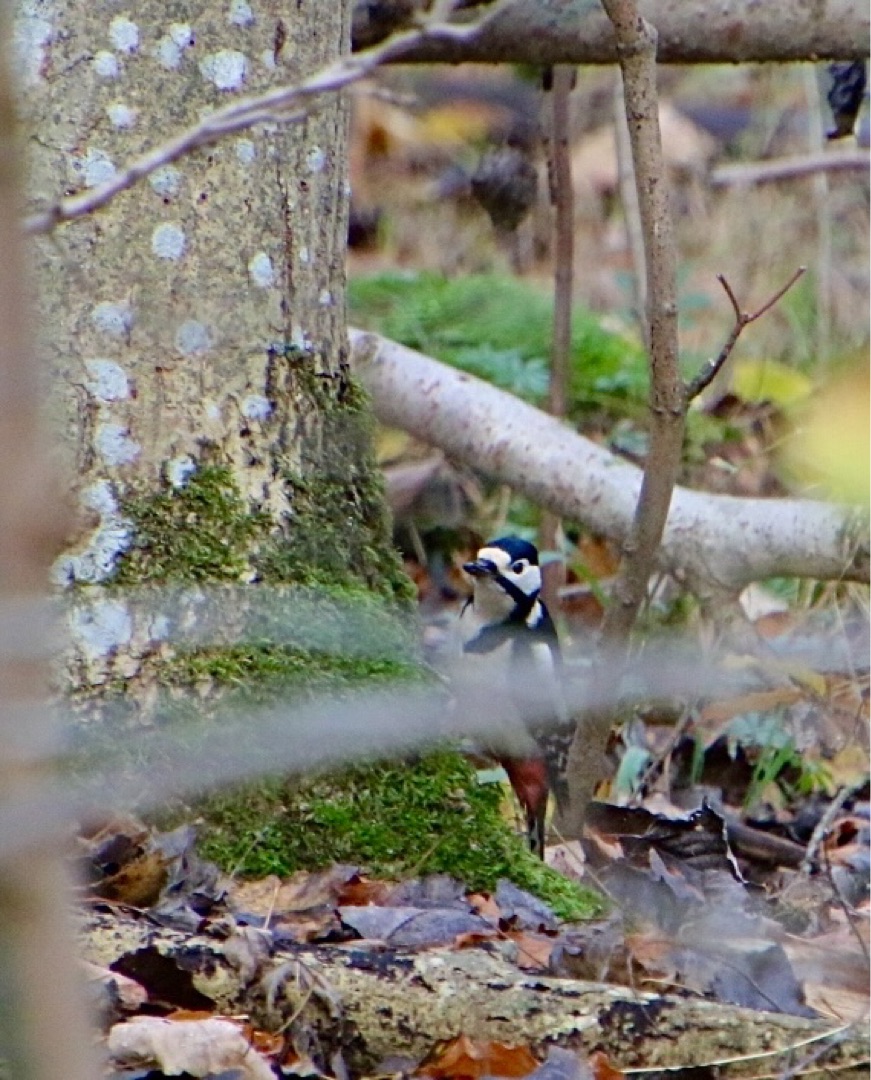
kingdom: Animalia
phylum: Chordata
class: Aves
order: Piciformes
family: Picidae
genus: Dendrocopos
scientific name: Dendrocopos major
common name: Stor flagspætte
